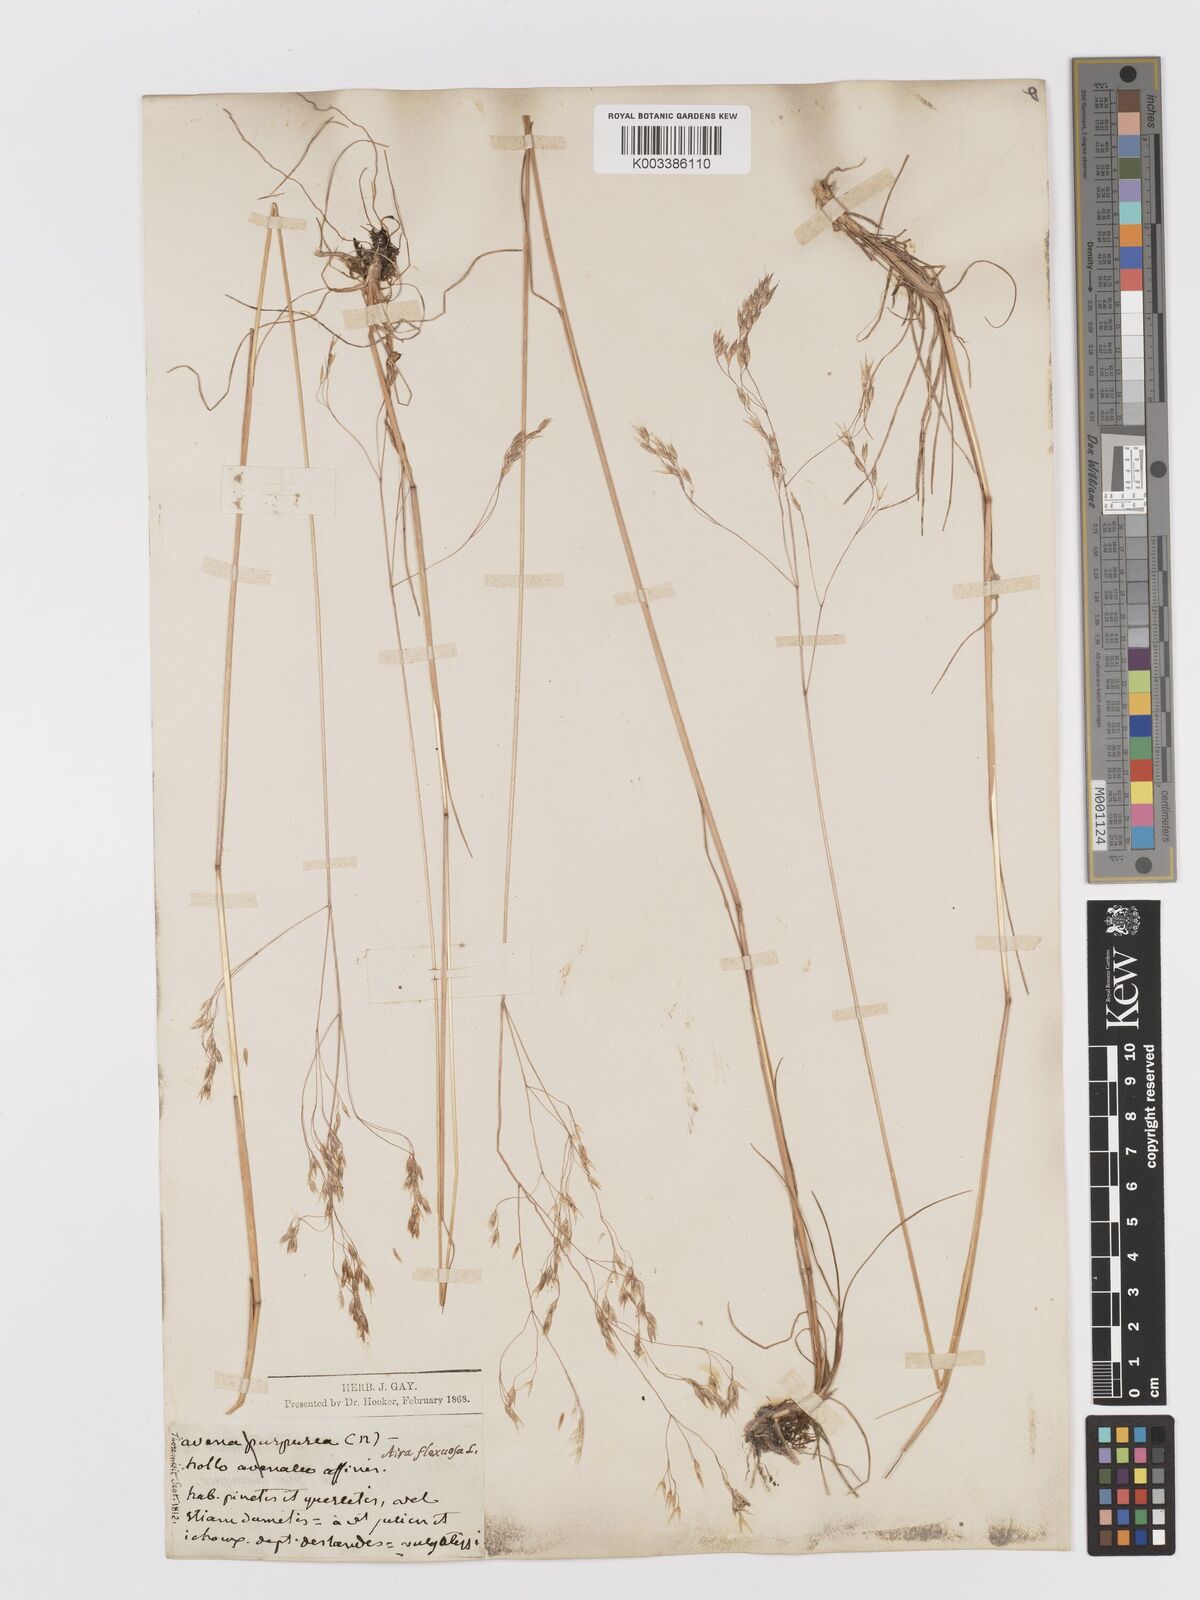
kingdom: Plantae
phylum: Tracheophyta
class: Liliopsida
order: Poales
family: Poaceae
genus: Avenella
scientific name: Avenella flexuosa
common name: Wavy hairgrass
